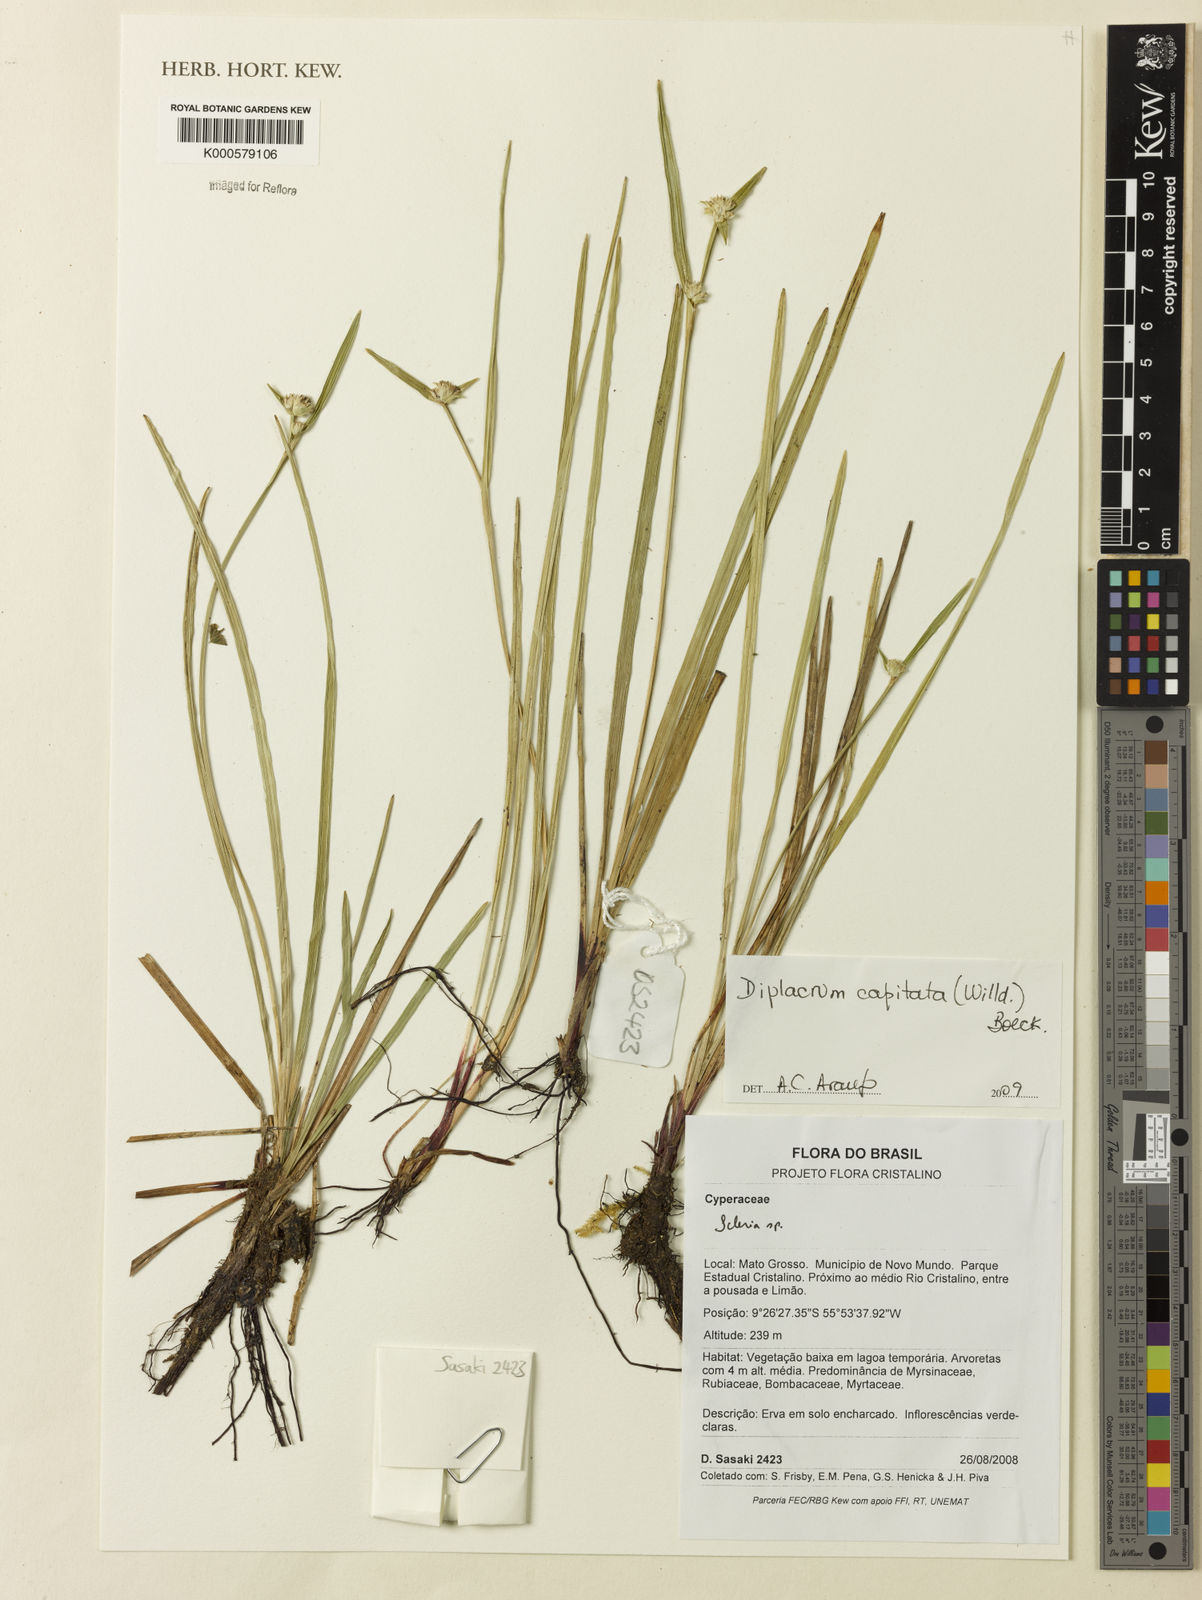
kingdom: Plantae
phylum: Tracheophyta
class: Liliopsida
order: Poales
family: Cyperaceae
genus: Diplacrum
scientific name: Diplacrum capitatum
